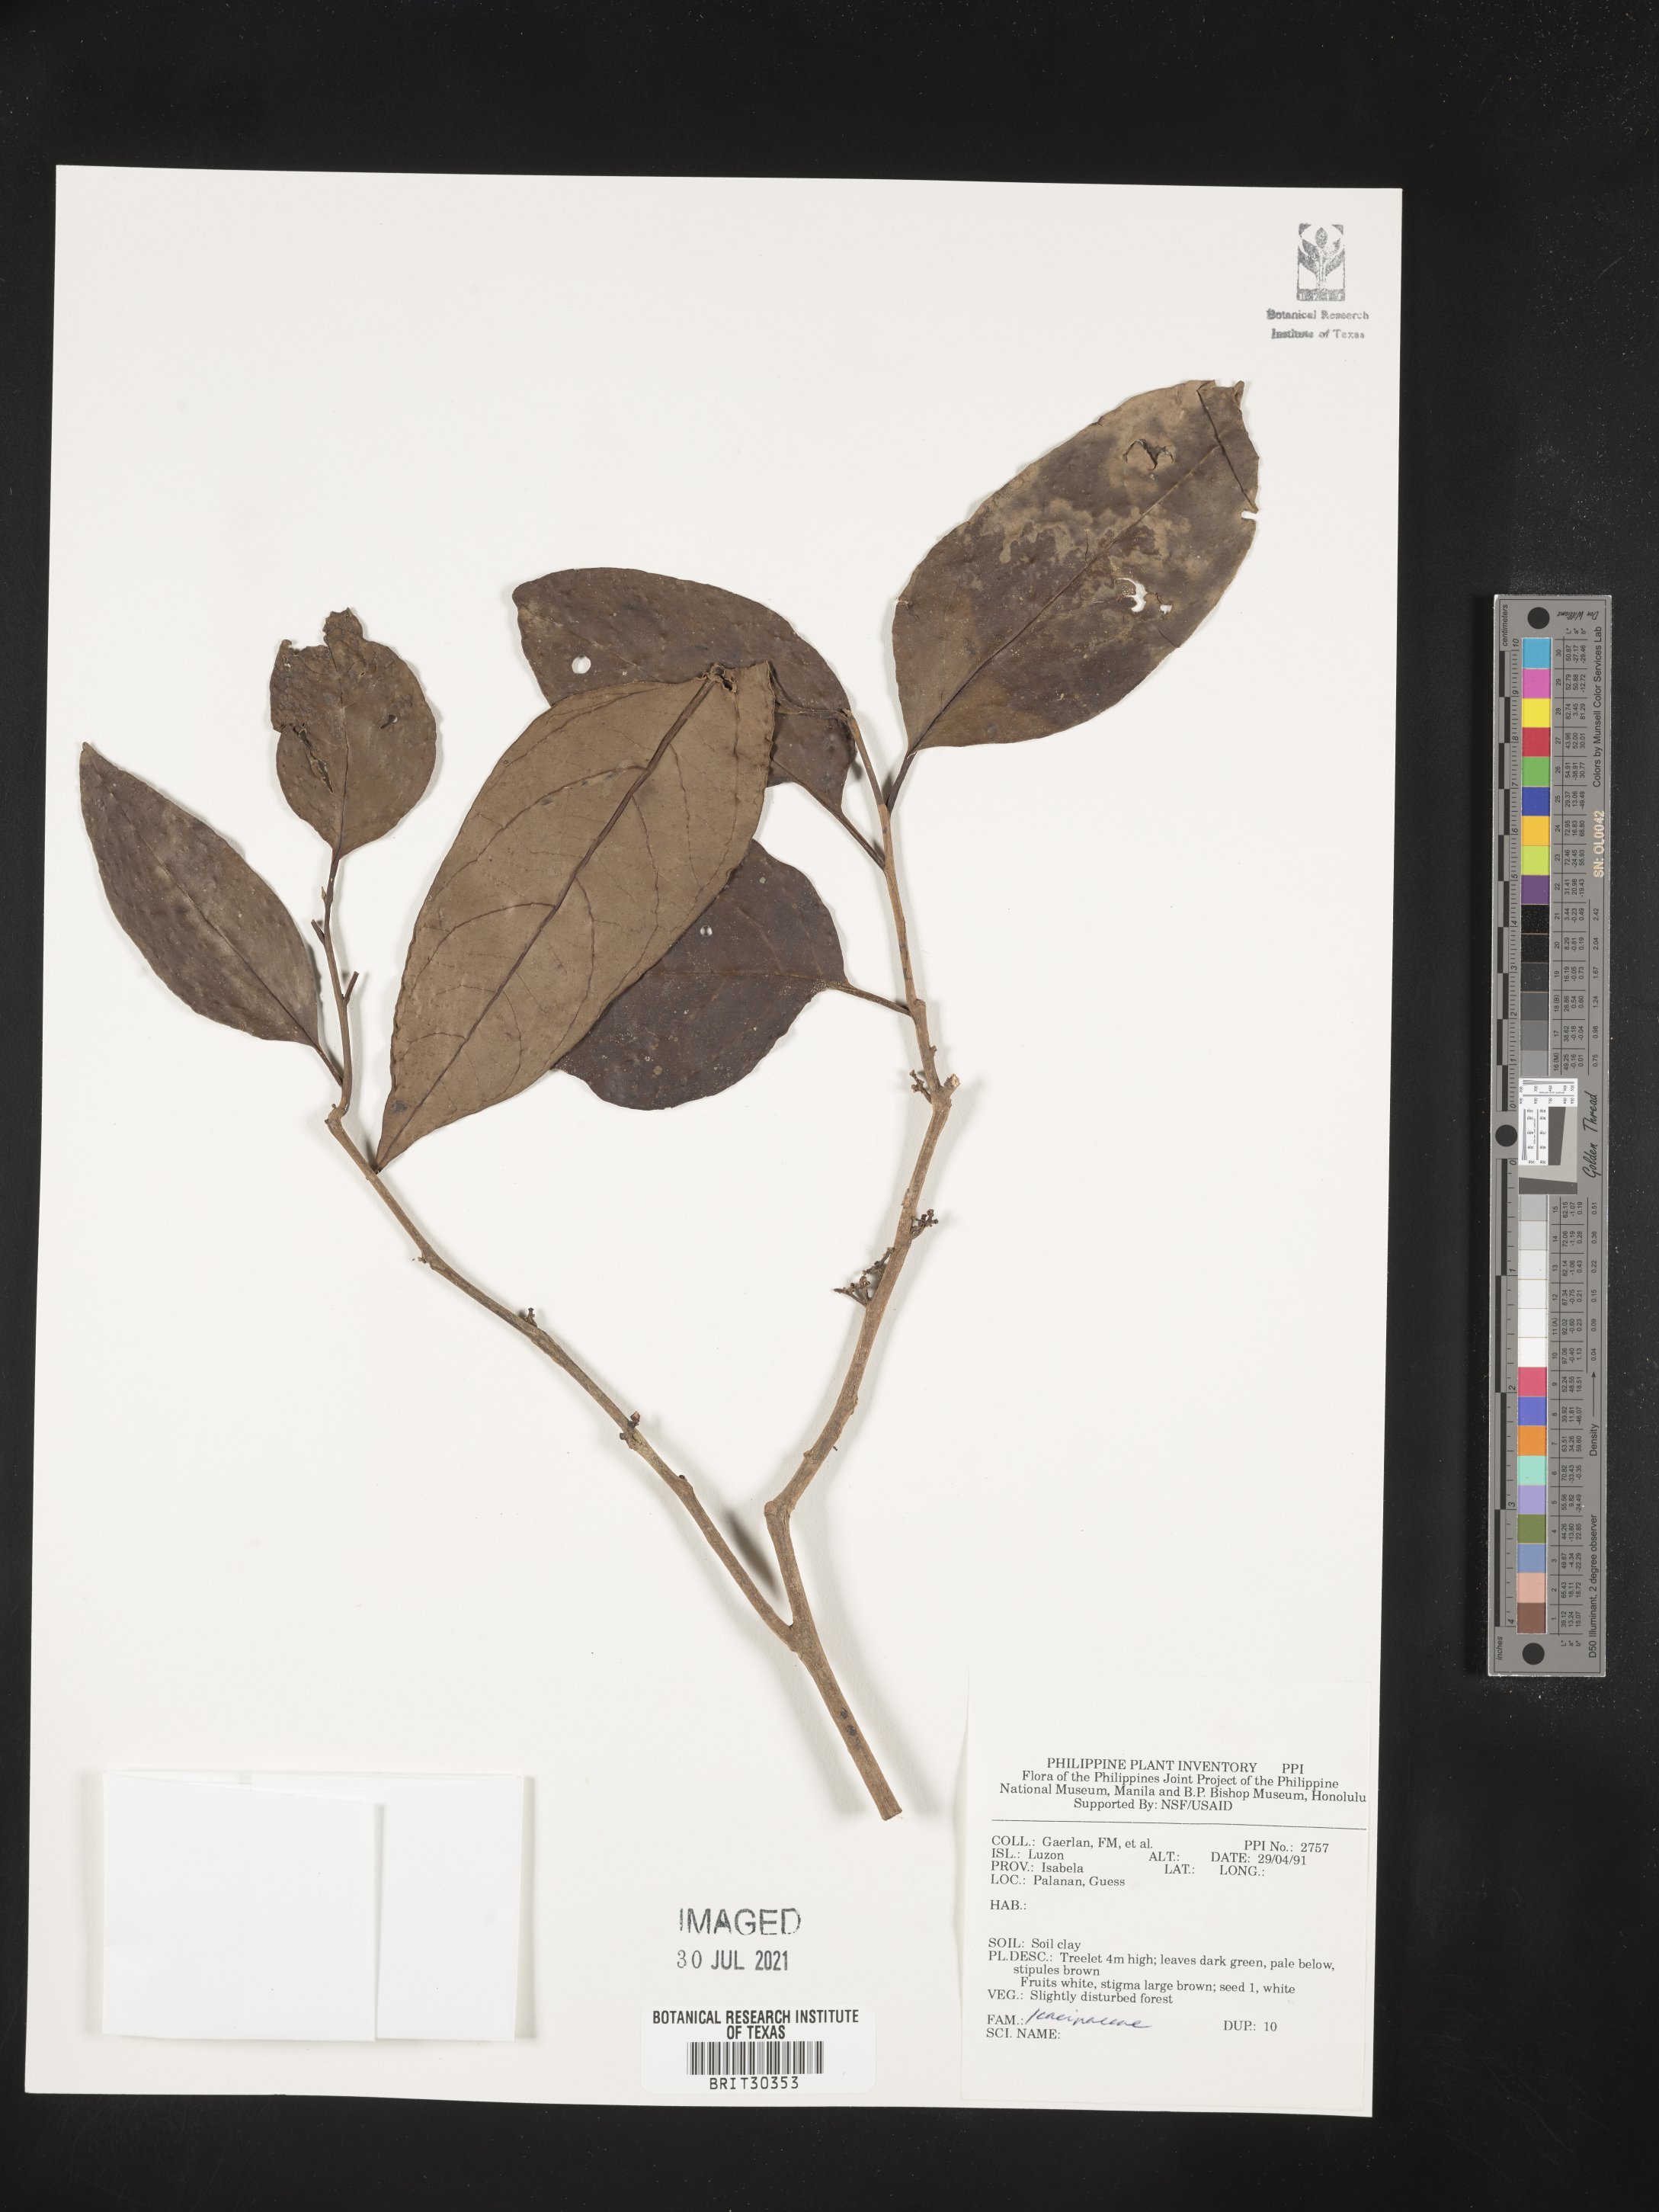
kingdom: Plantae
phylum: Tracheophyta
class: Magnoliopsida
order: Icacinales
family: Icacinaceae
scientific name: Icacinaceae
